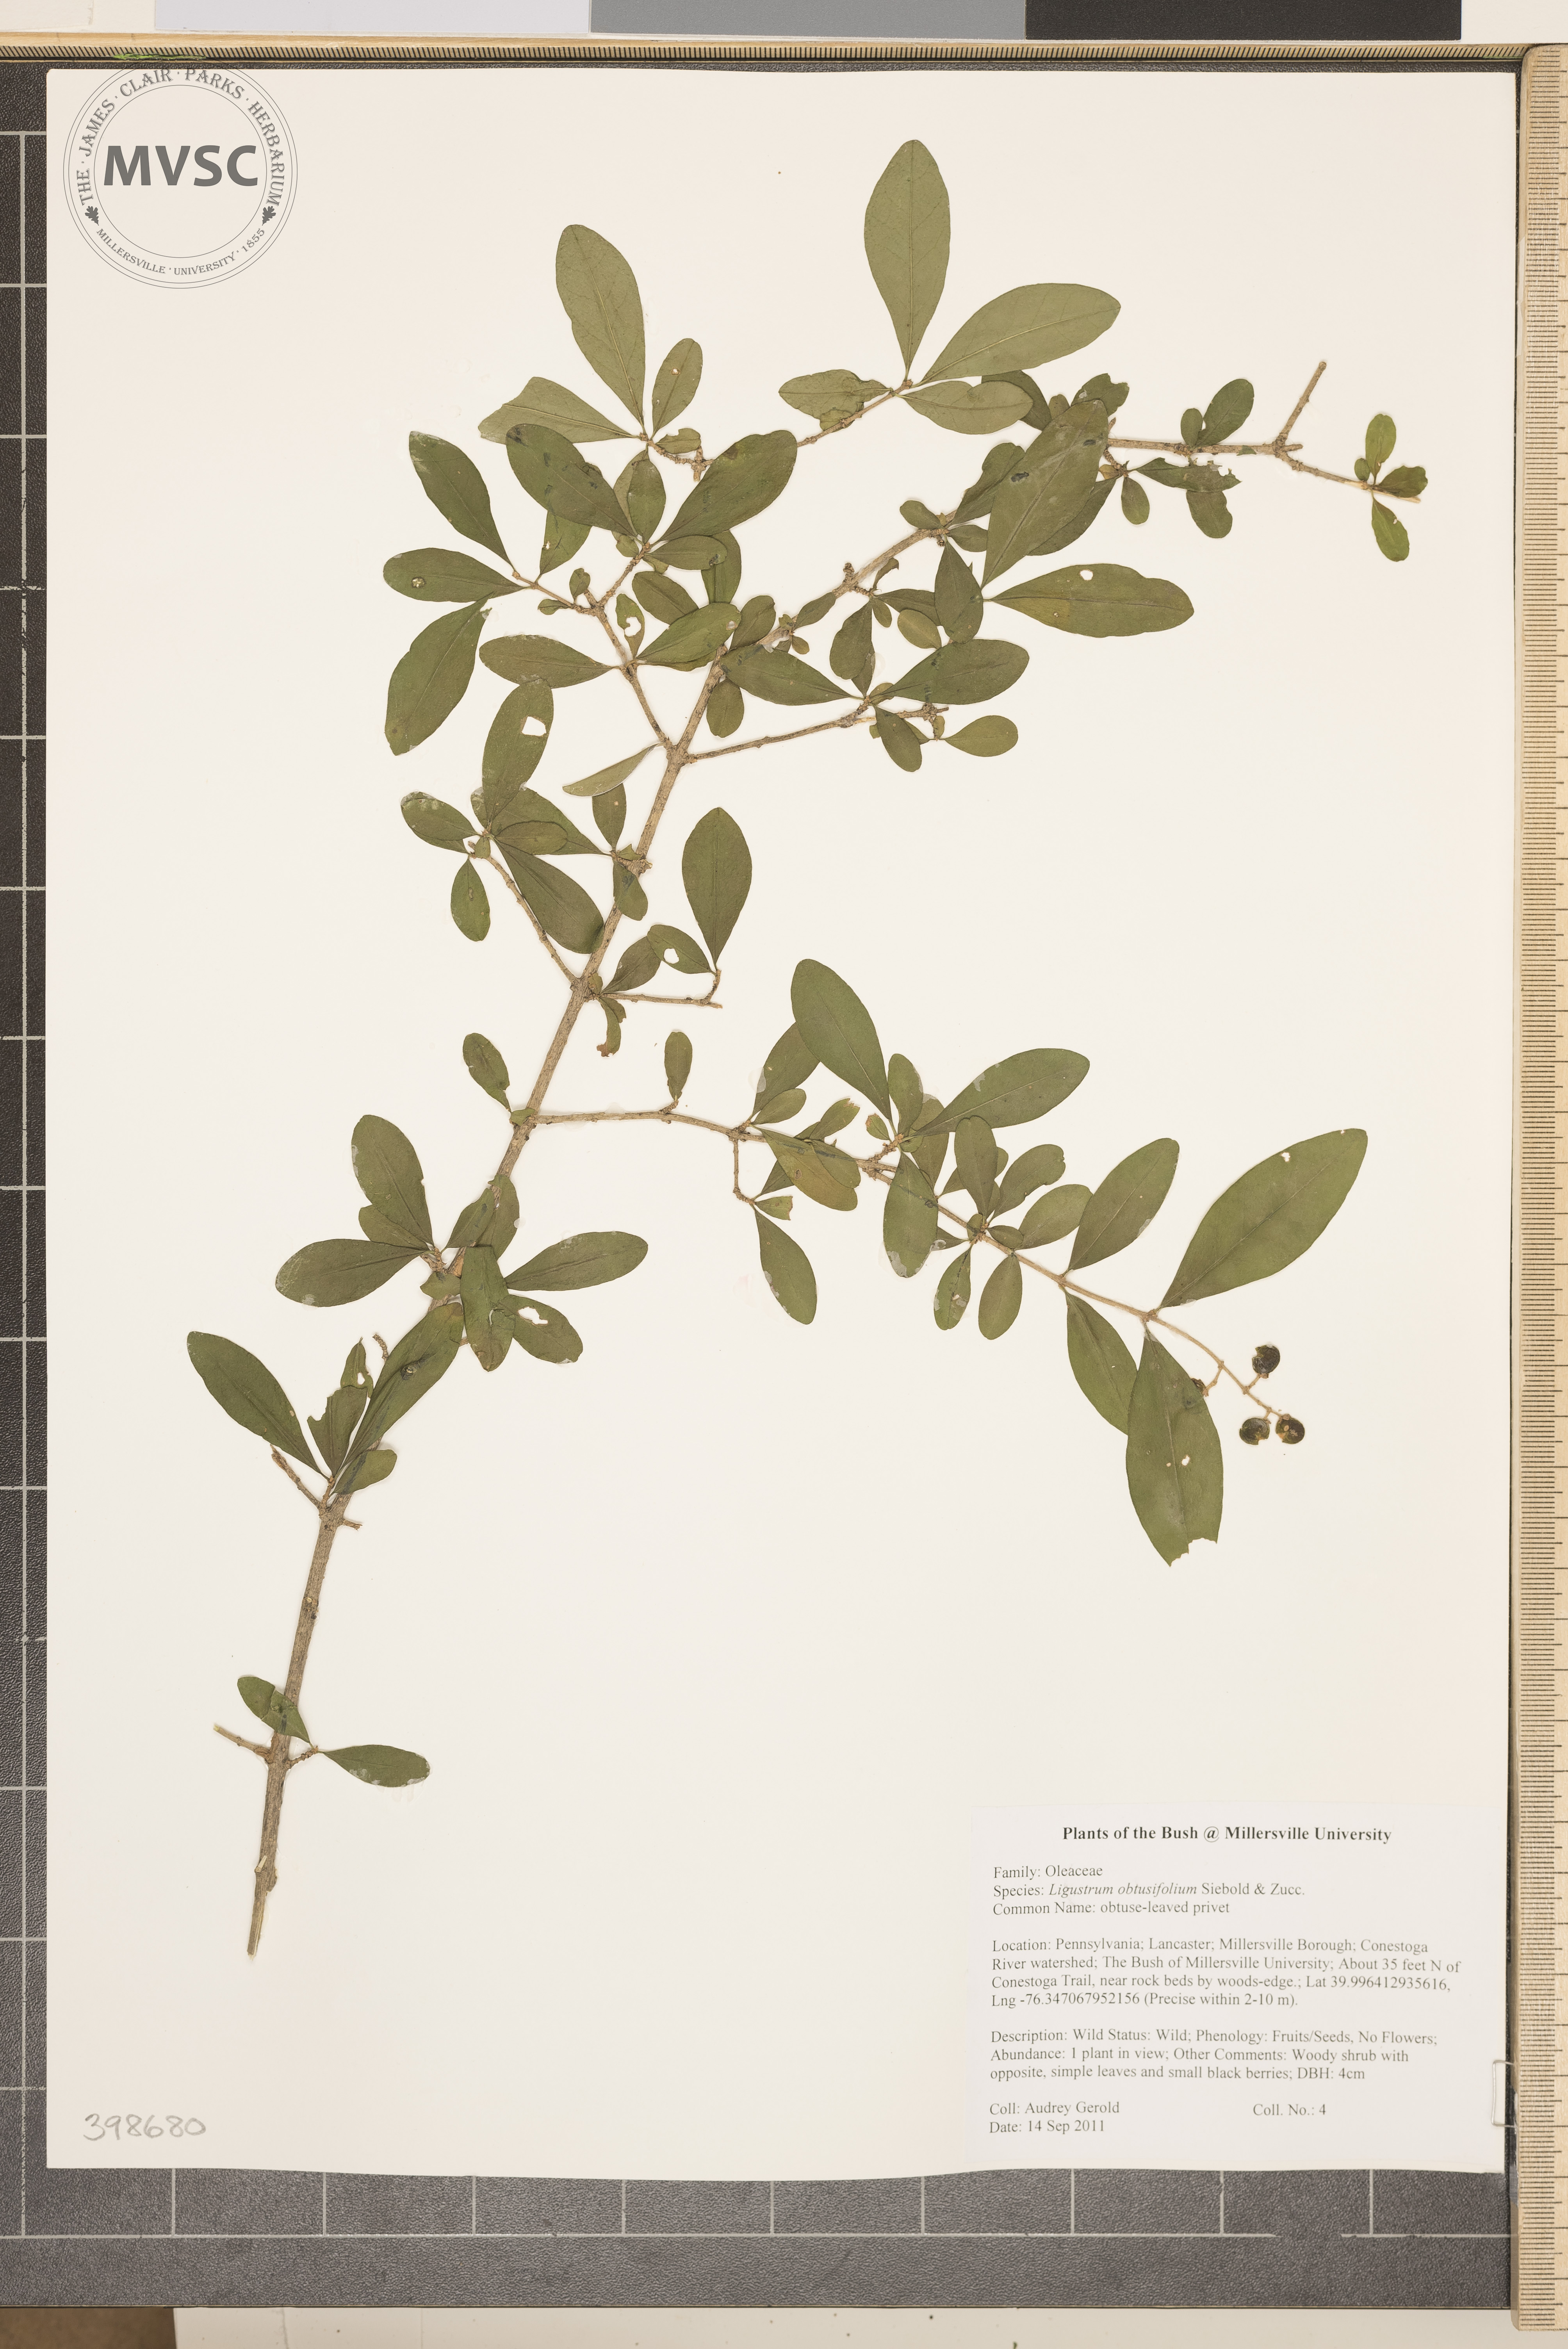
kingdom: Plantae
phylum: Tracheophyta
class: Magnoliopsida
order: Lamiales
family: Oleaceae
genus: Ligustrum
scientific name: Ligustrum obtusifolium
